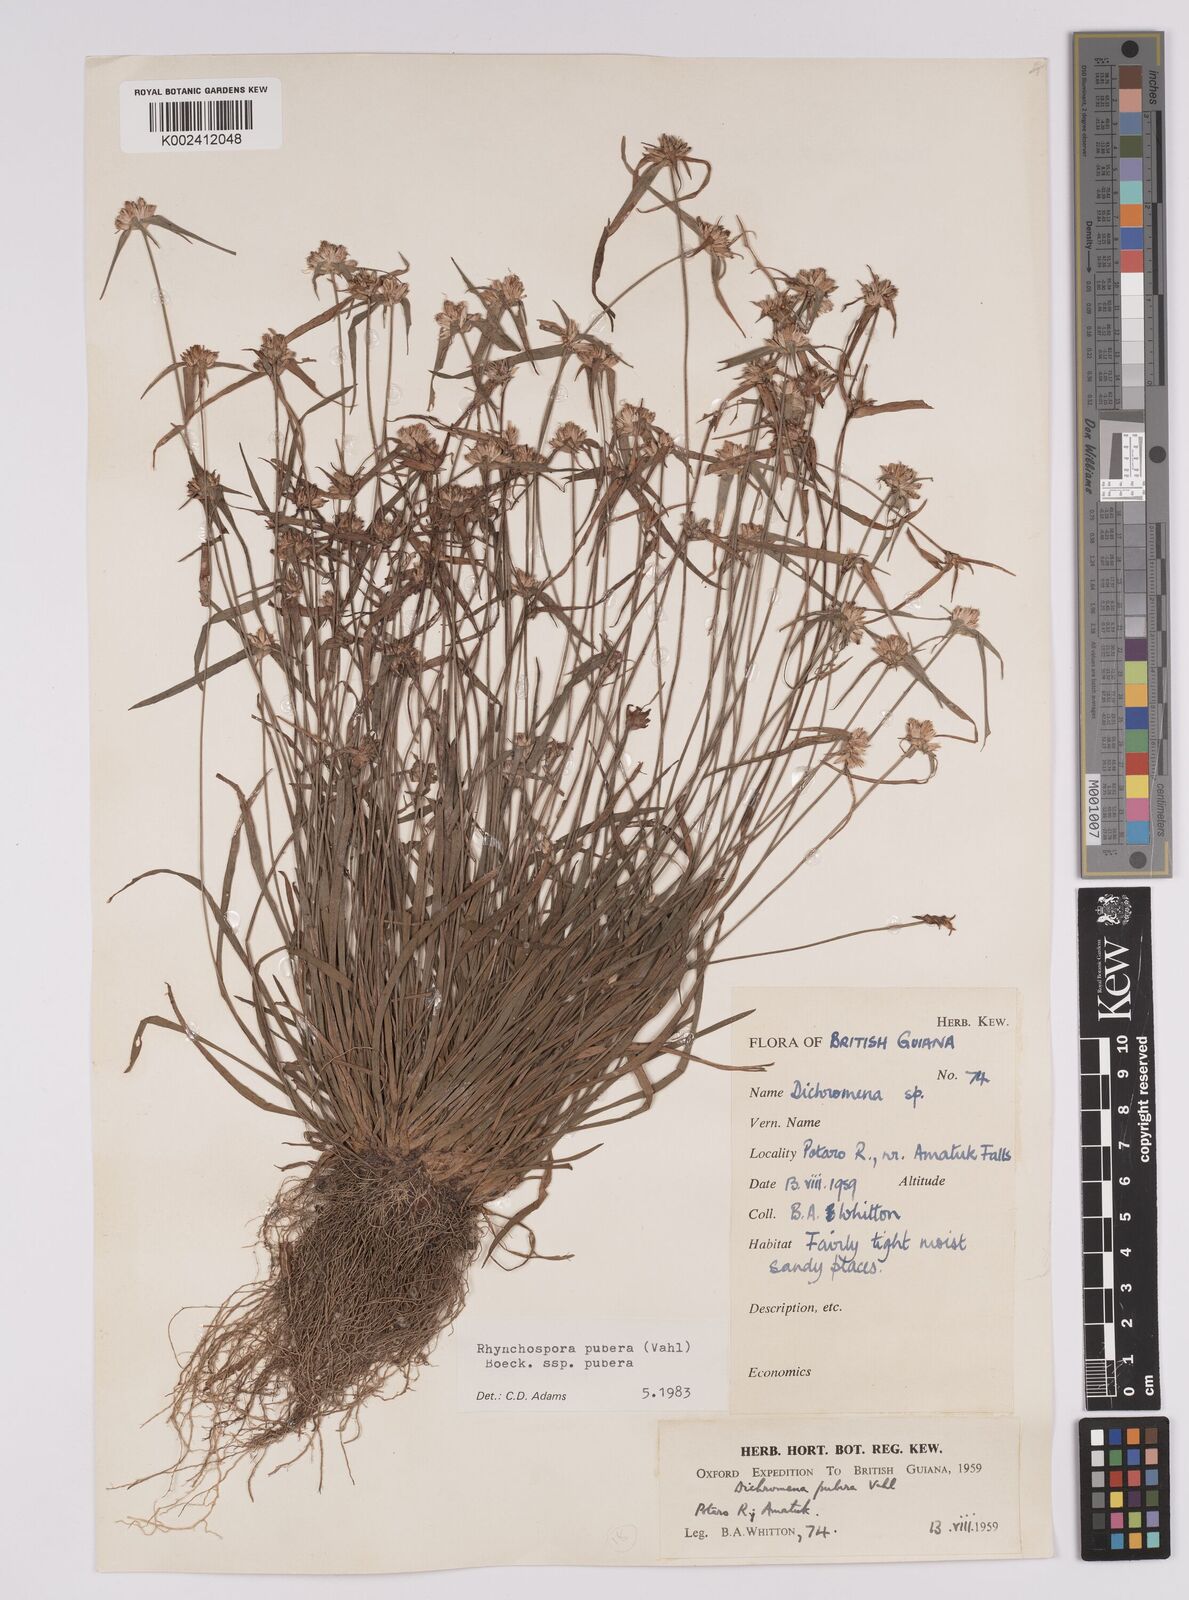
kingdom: Plantae
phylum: Tracheophyta
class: Liliopsida
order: Poales
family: Cyperaceae
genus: Rhynchospora
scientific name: Rhynchospora pubera
